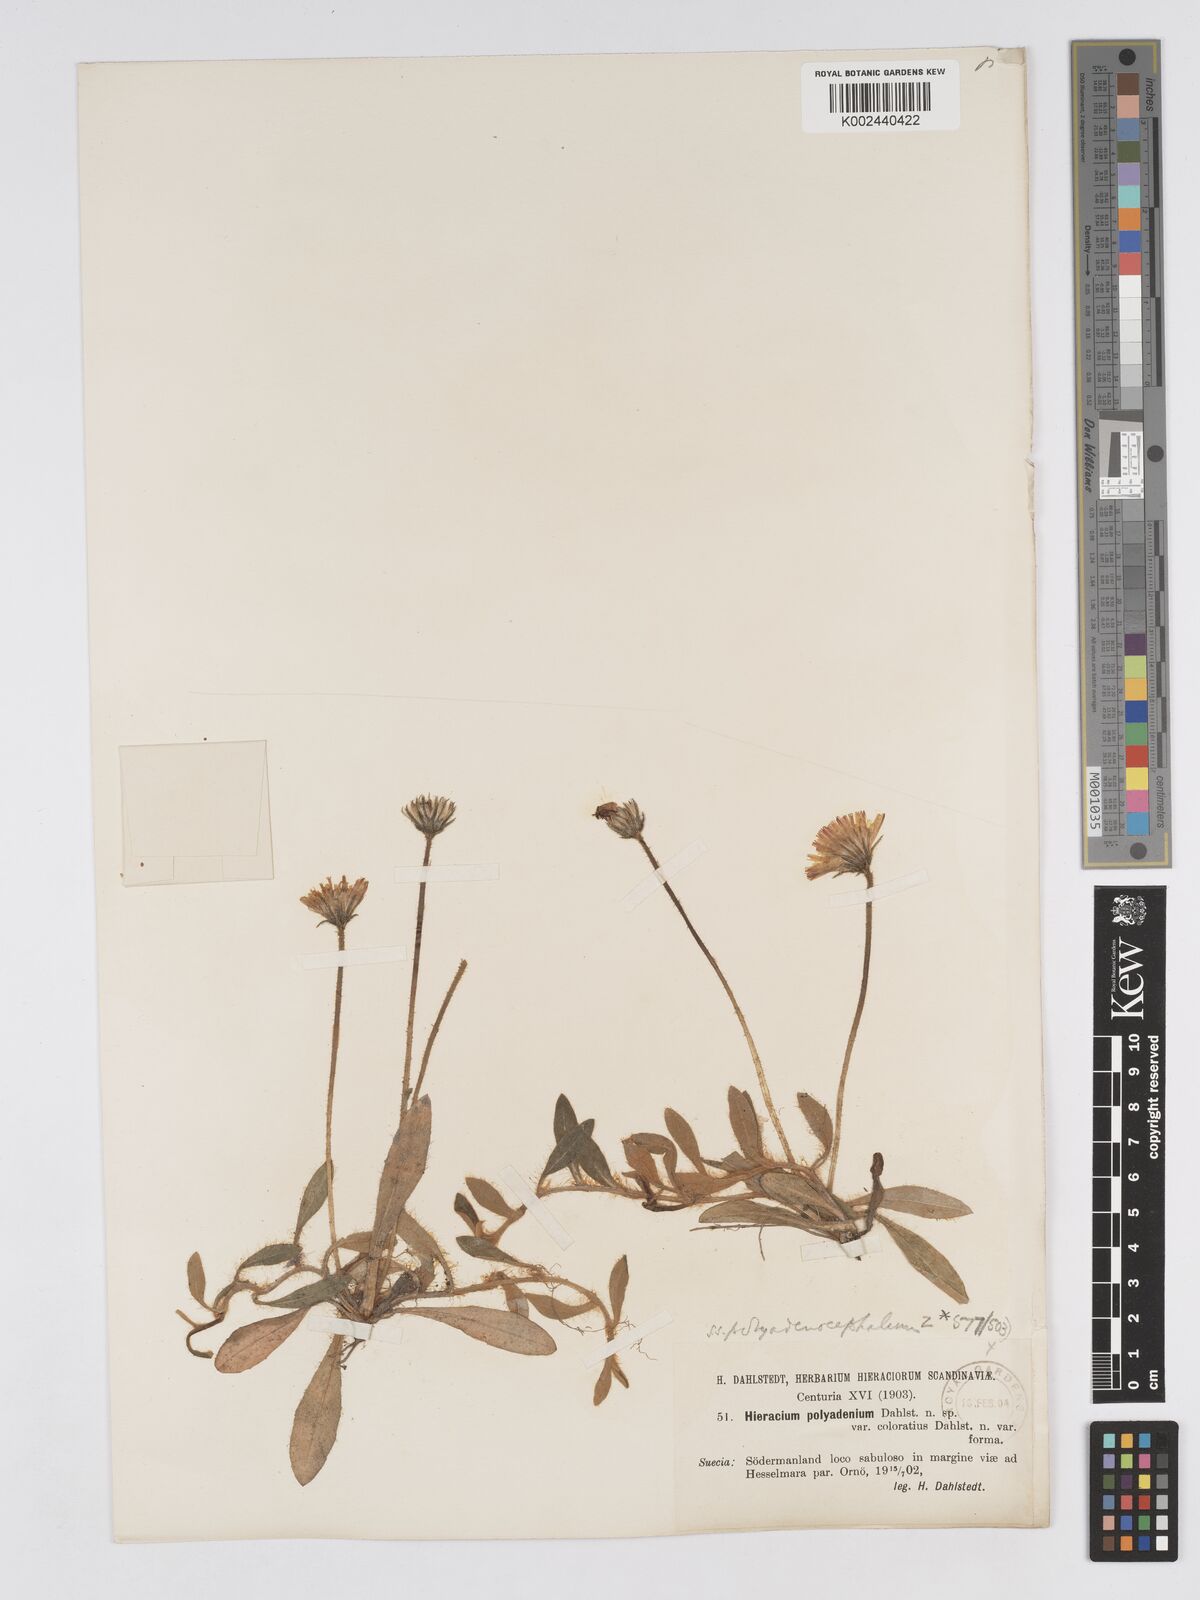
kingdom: Plantae
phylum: Tracheophyta
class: Magnoliopsida
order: Asterales
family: Asteraceae
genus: Hieracium
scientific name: Hieracium
